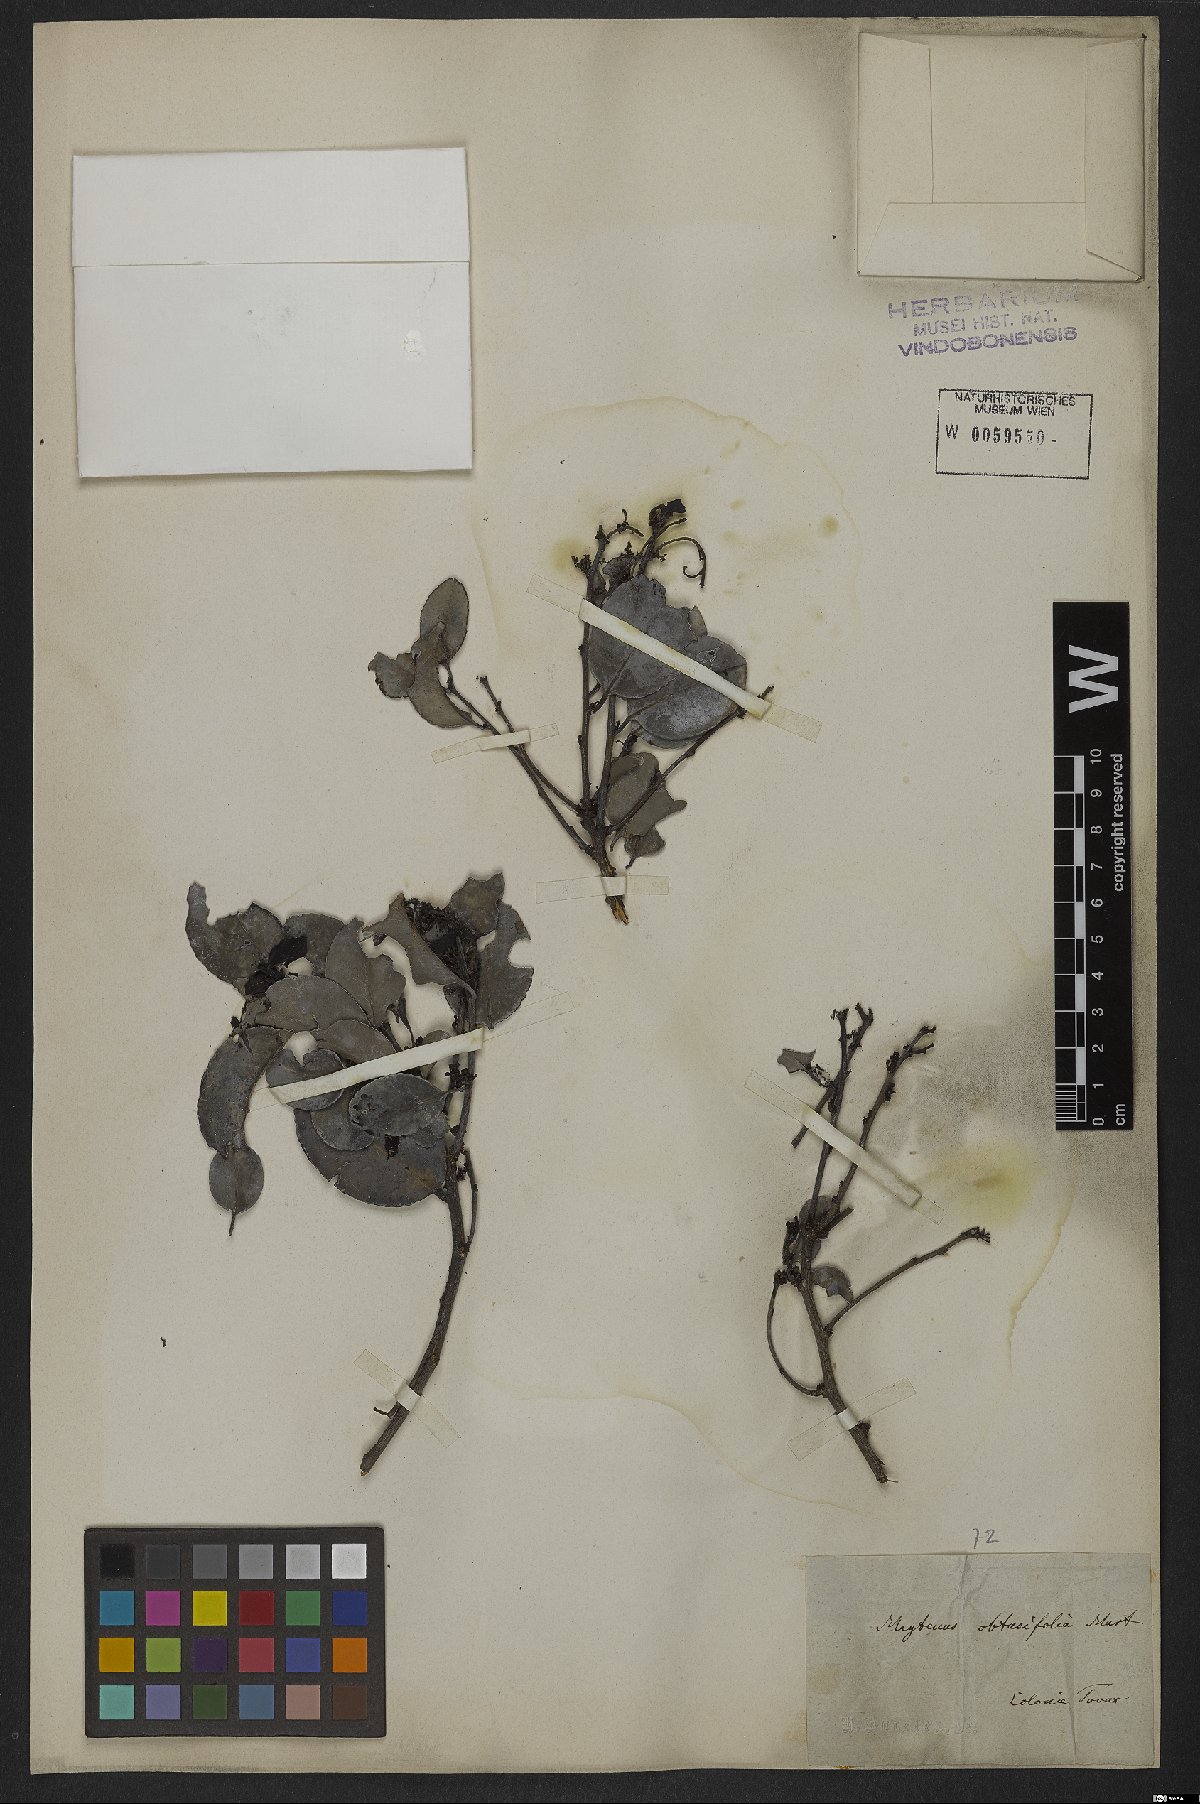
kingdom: Plantae
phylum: Tracheophyta
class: Magnoliopsida
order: Celastrales
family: Celastraceae
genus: Monteverdia
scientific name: Monteverdia obtusifolia
